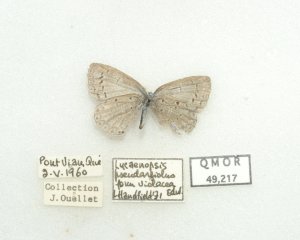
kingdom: Animalia
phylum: Arthropoda
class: Insecta
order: Lepidoptera
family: Lycaenidae
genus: Celastrina
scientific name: Celastrina lucia
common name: Northern Spring Azure
